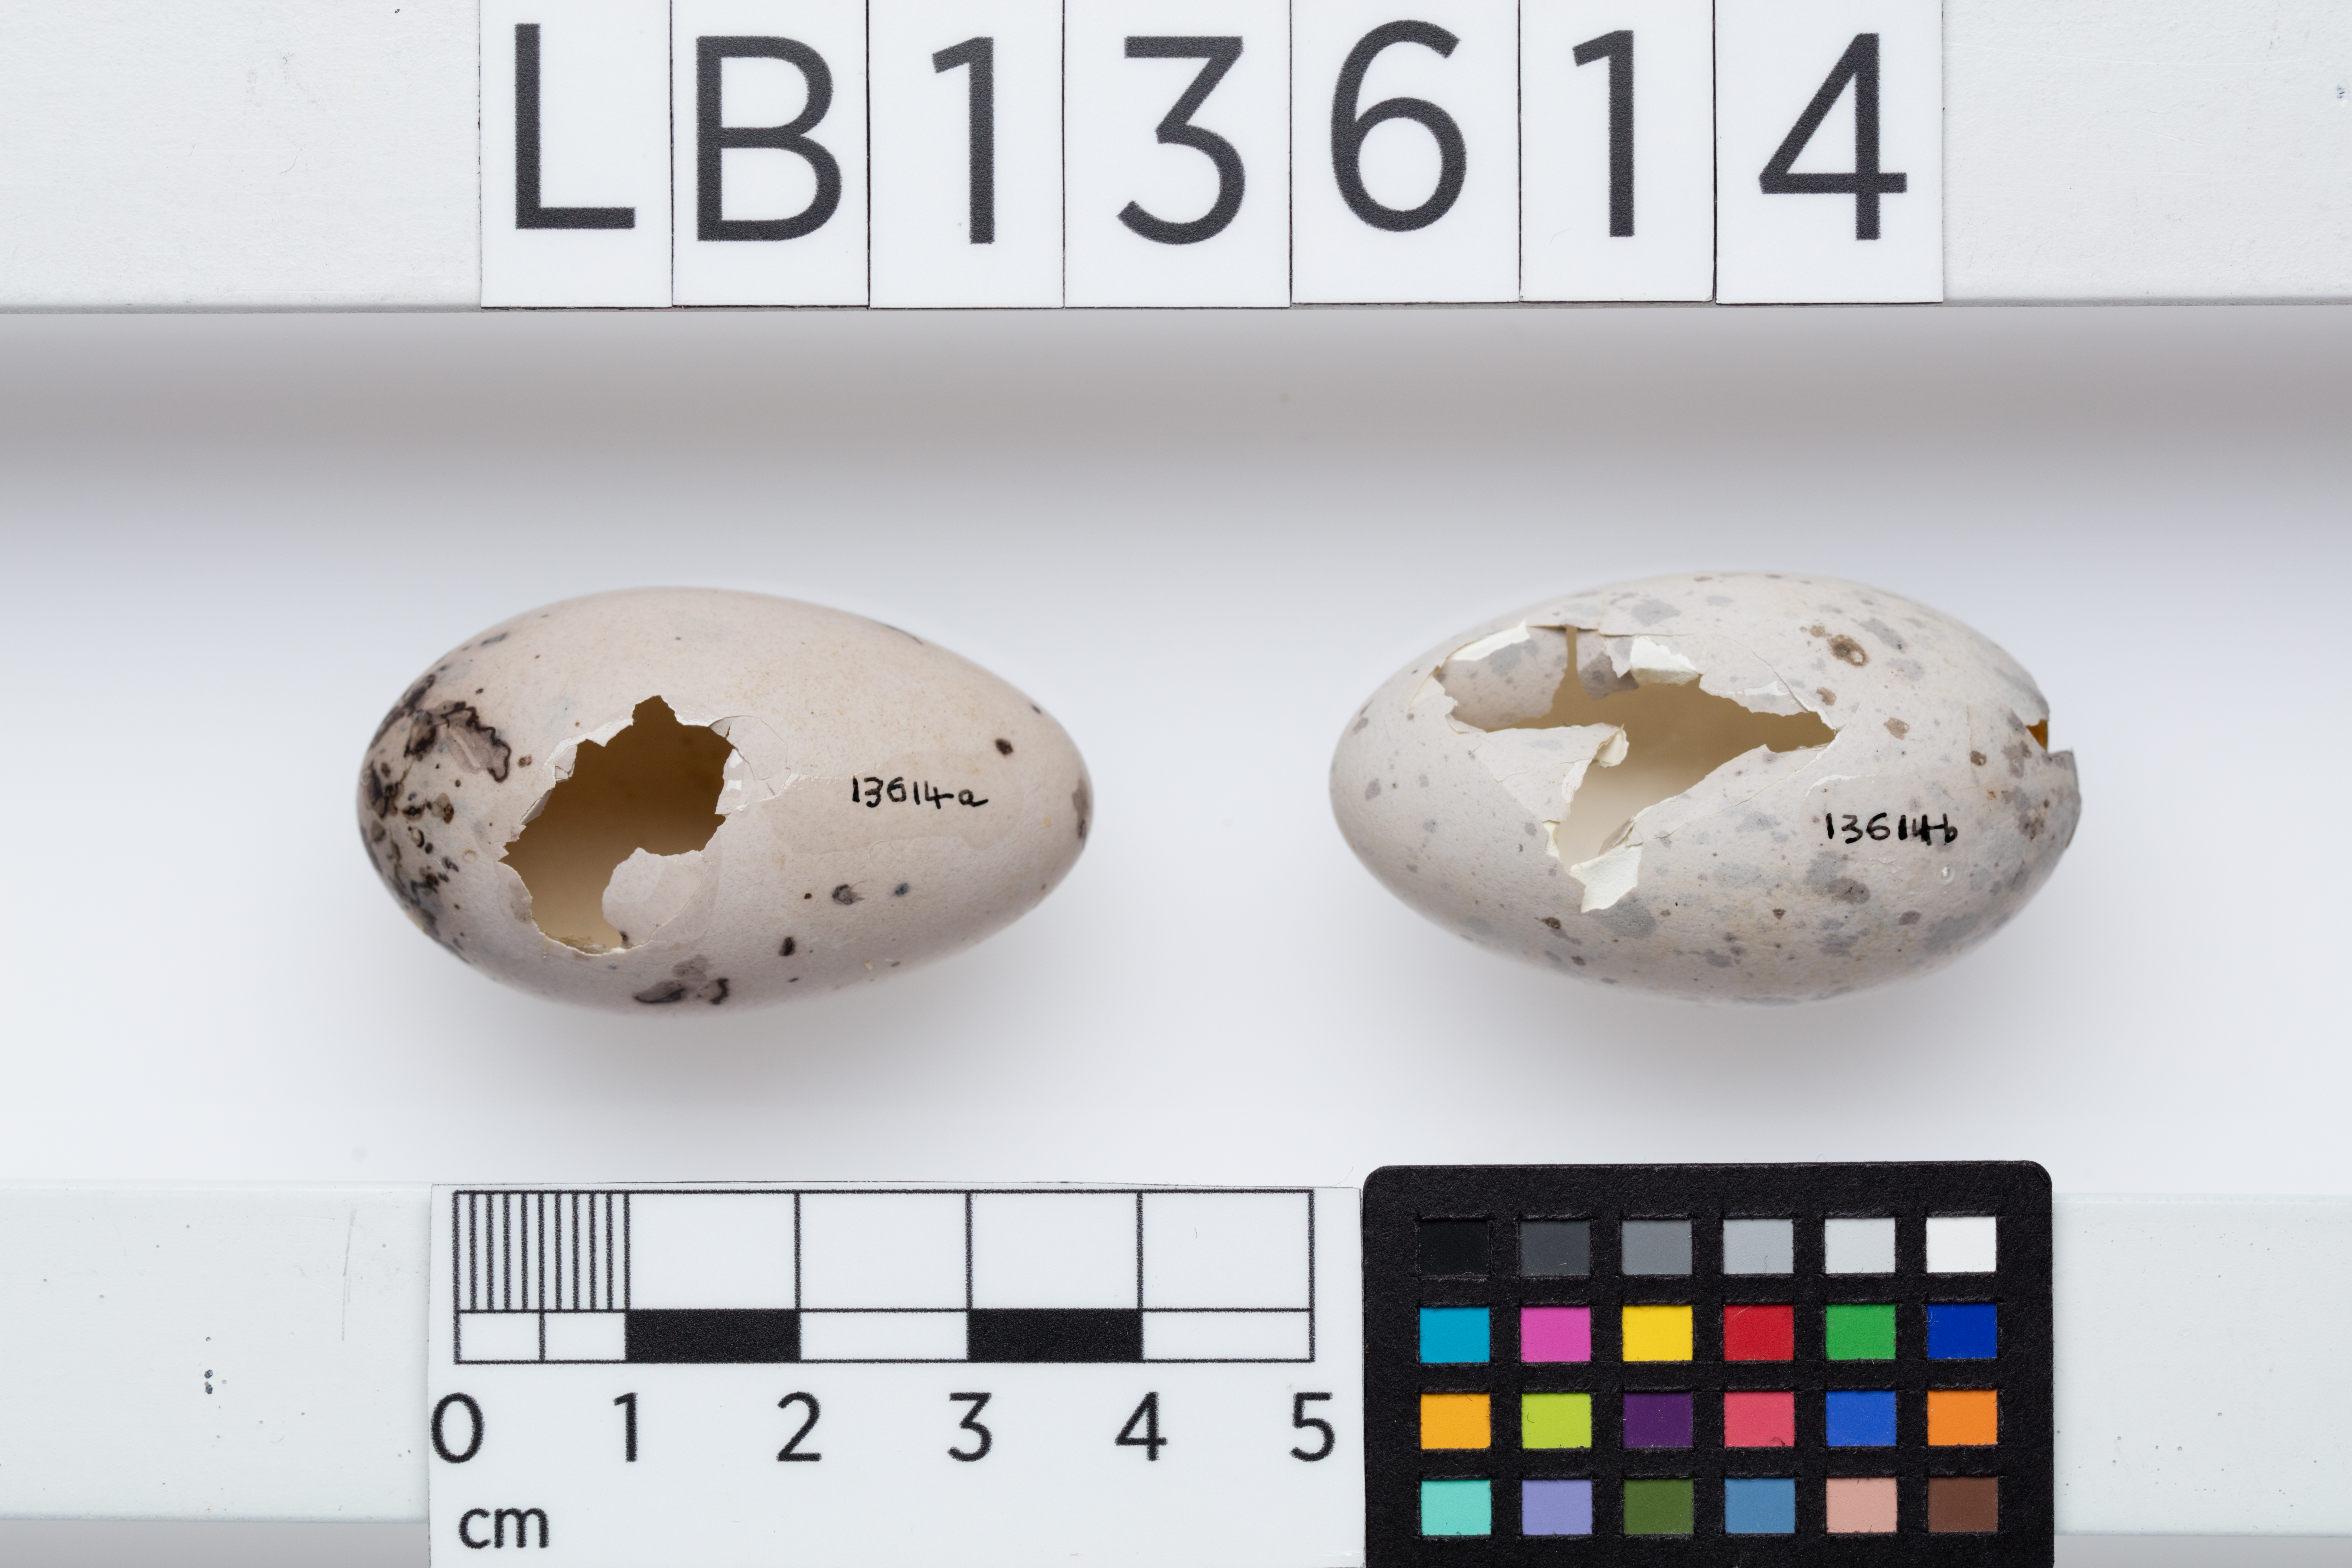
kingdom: Animalia
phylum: Chordata
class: Aves
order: Passeriformes
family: Callaeatidae
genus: Callaeas
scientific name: Callaeas cinereus
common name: South island kokako
